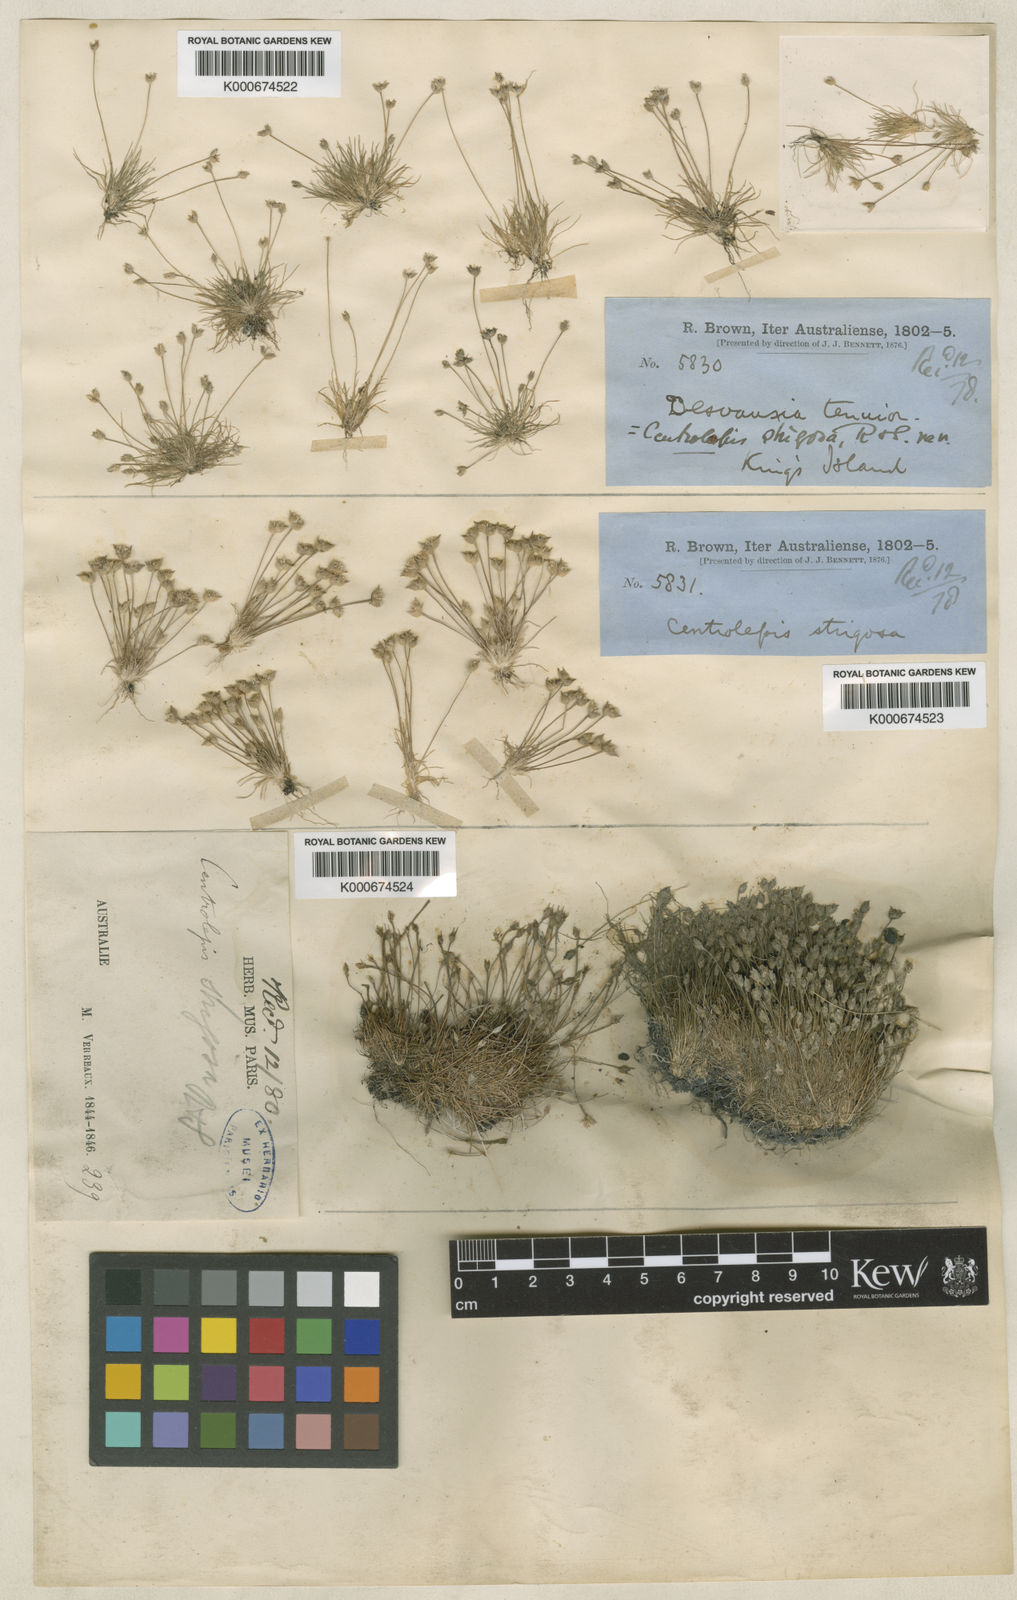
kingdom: Plantae
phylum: Tracheophyta
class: Liliopsida
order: Poales
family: Restionaceae
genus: Centrolepis
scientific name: Centrolepis strigosa
